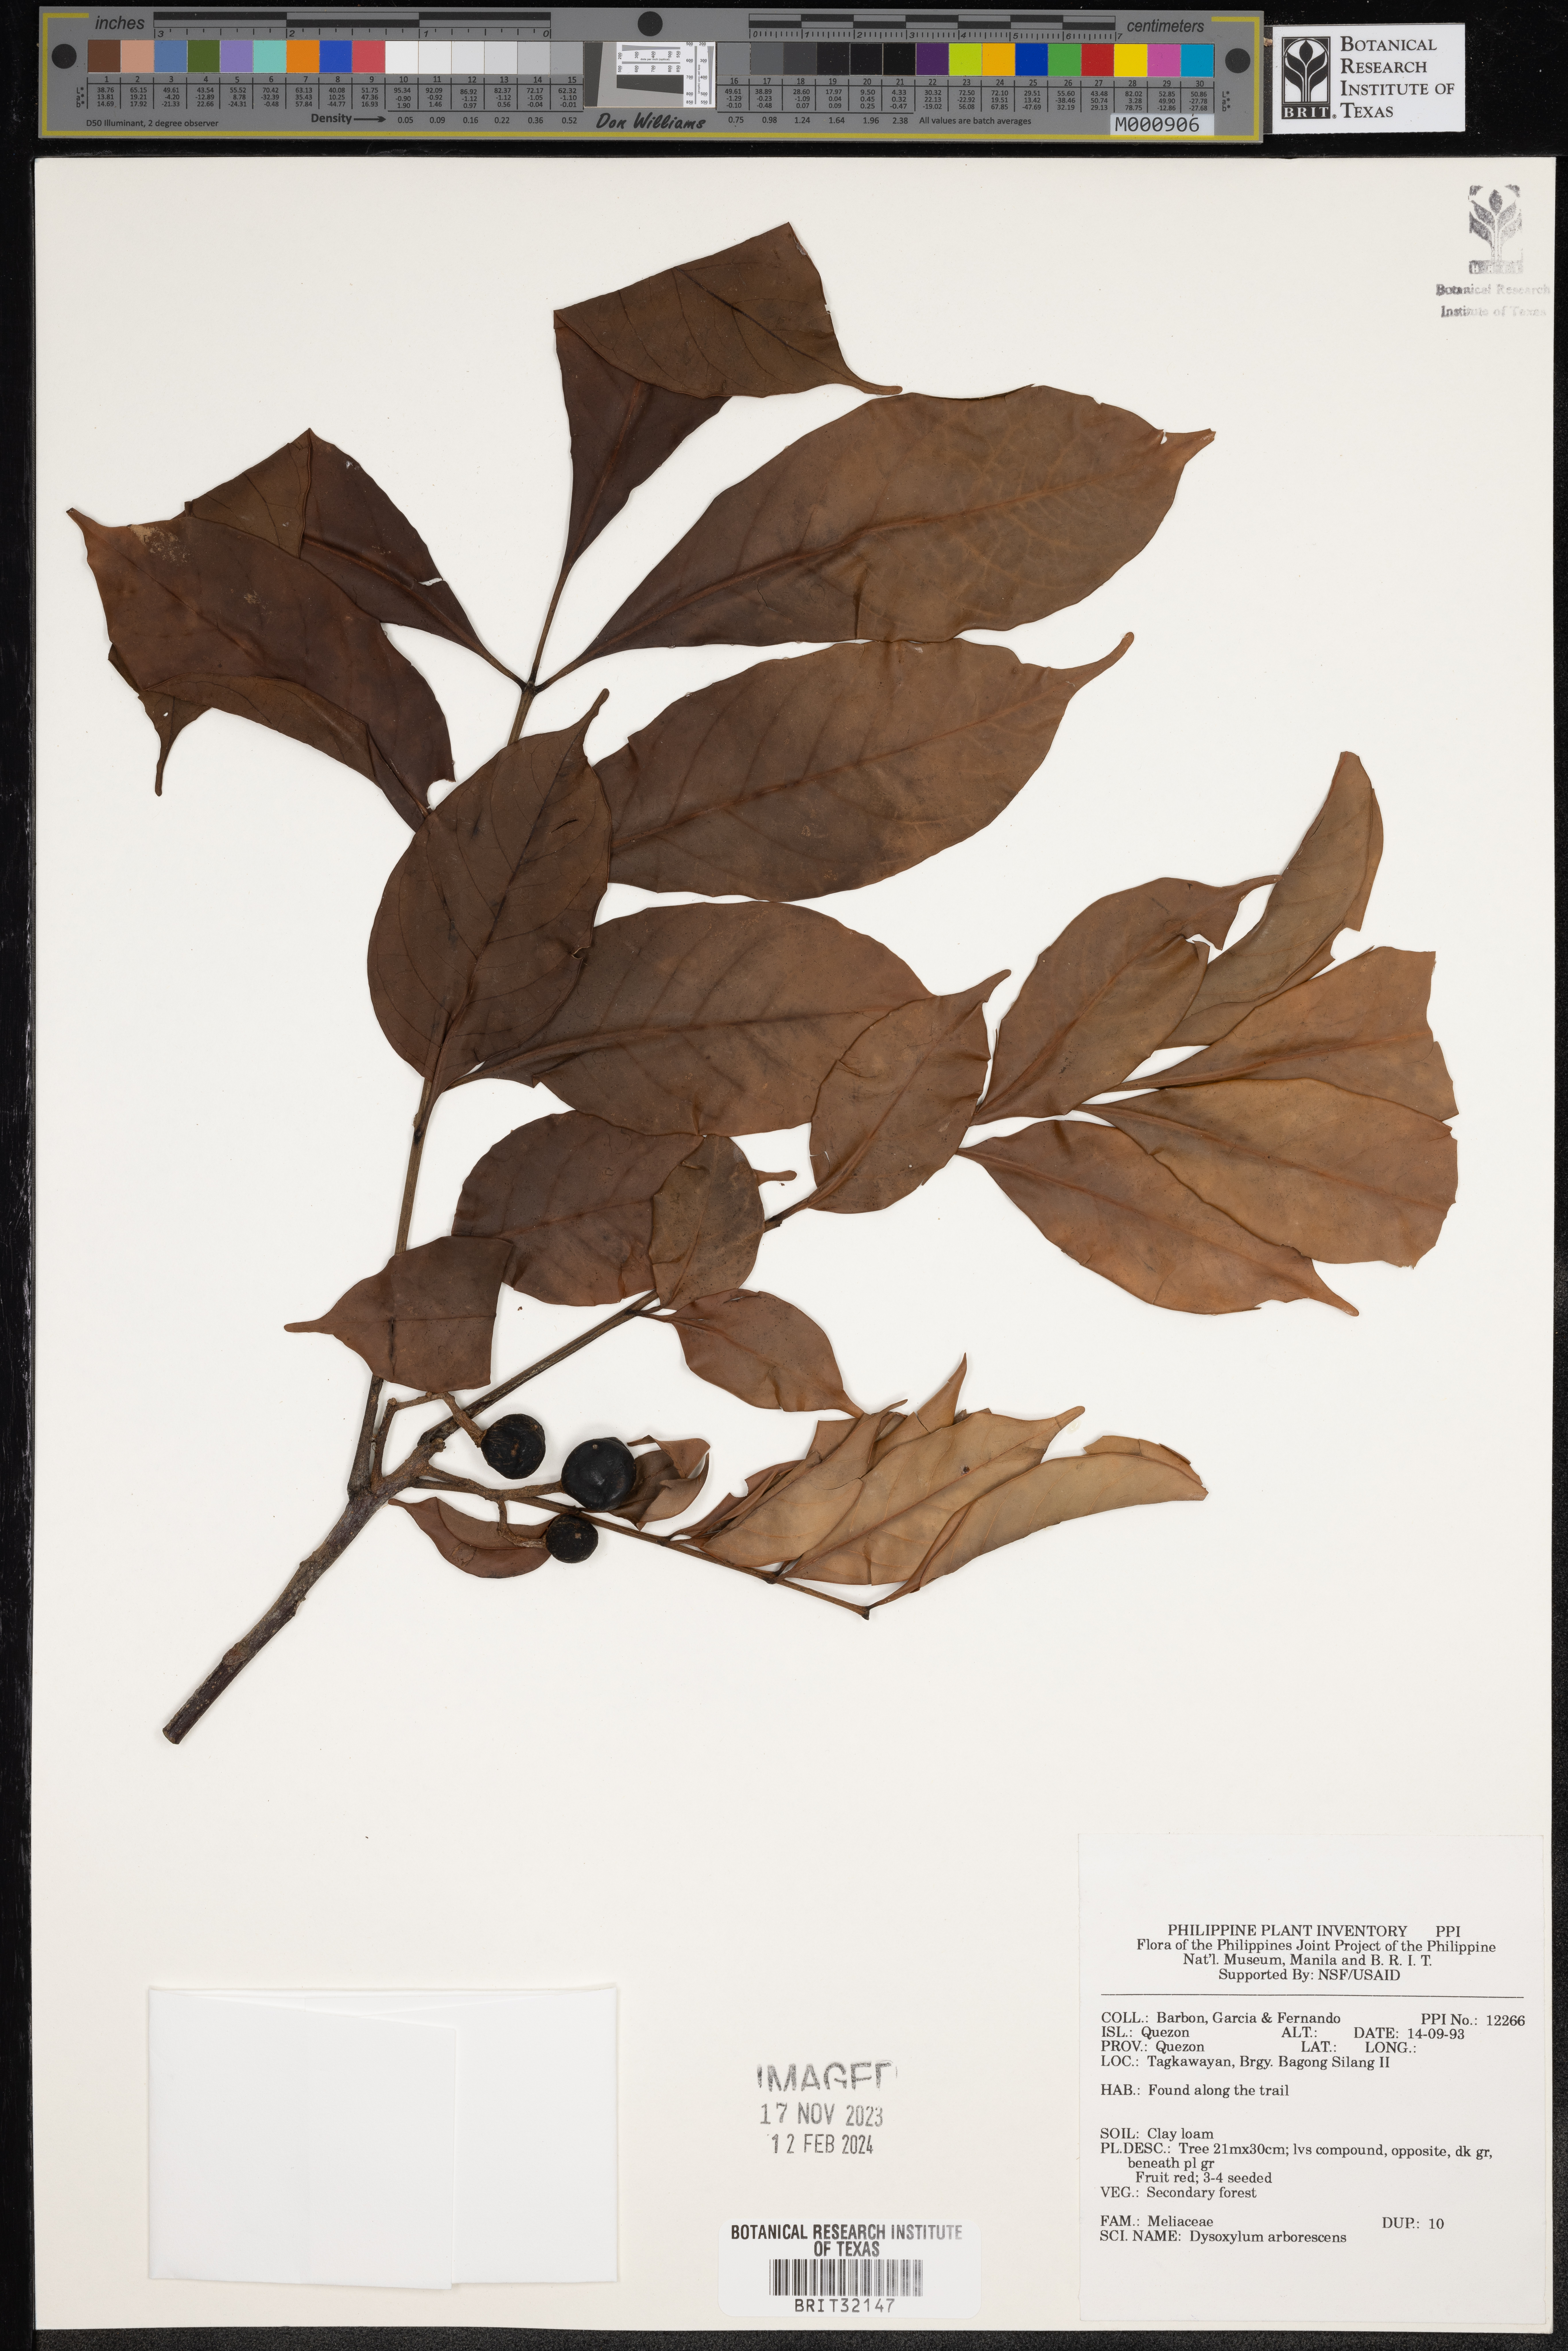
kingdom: Plantae
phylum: Tracheophyta
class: Magnoliopsida
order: Sapindales
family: Meliaceae
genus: Goniocheton
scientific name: Goniocheton arborescens
